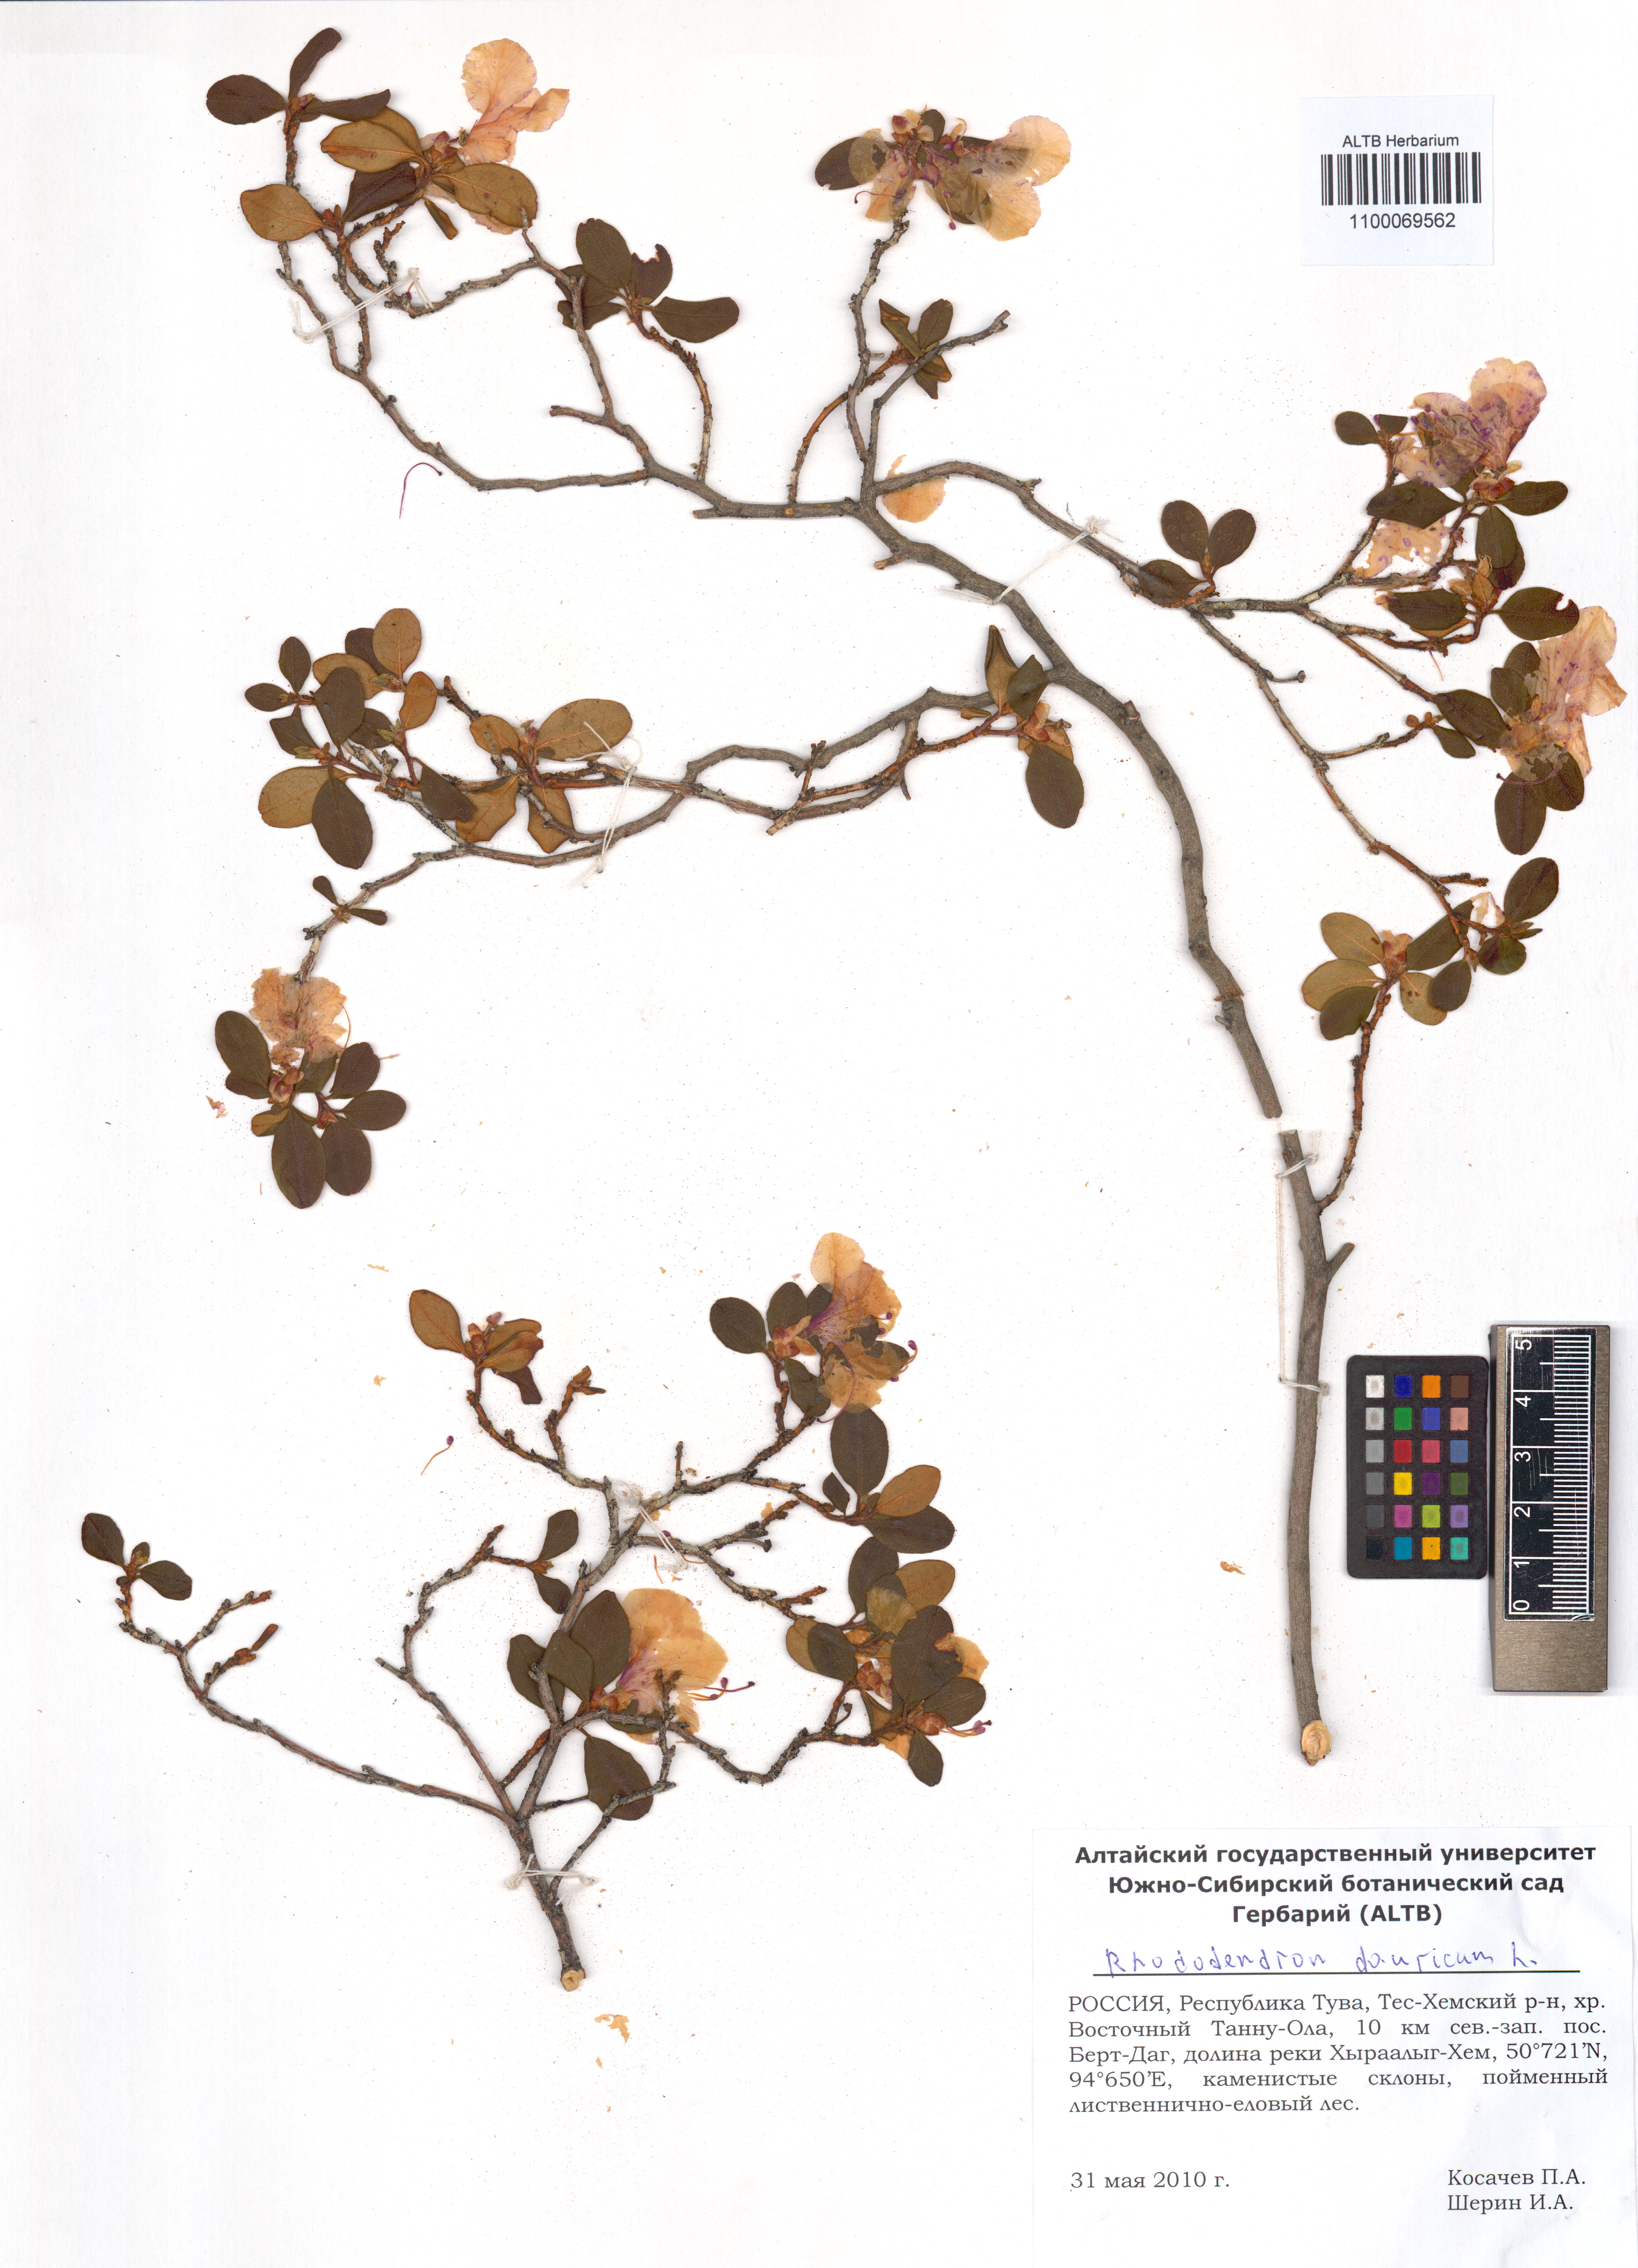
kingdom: Plantae
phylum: Tracheophyta
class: Magnoliopsida
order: Ericales
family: Ericaceae
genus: Rhododendron
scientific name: Rhododendron dauricum
